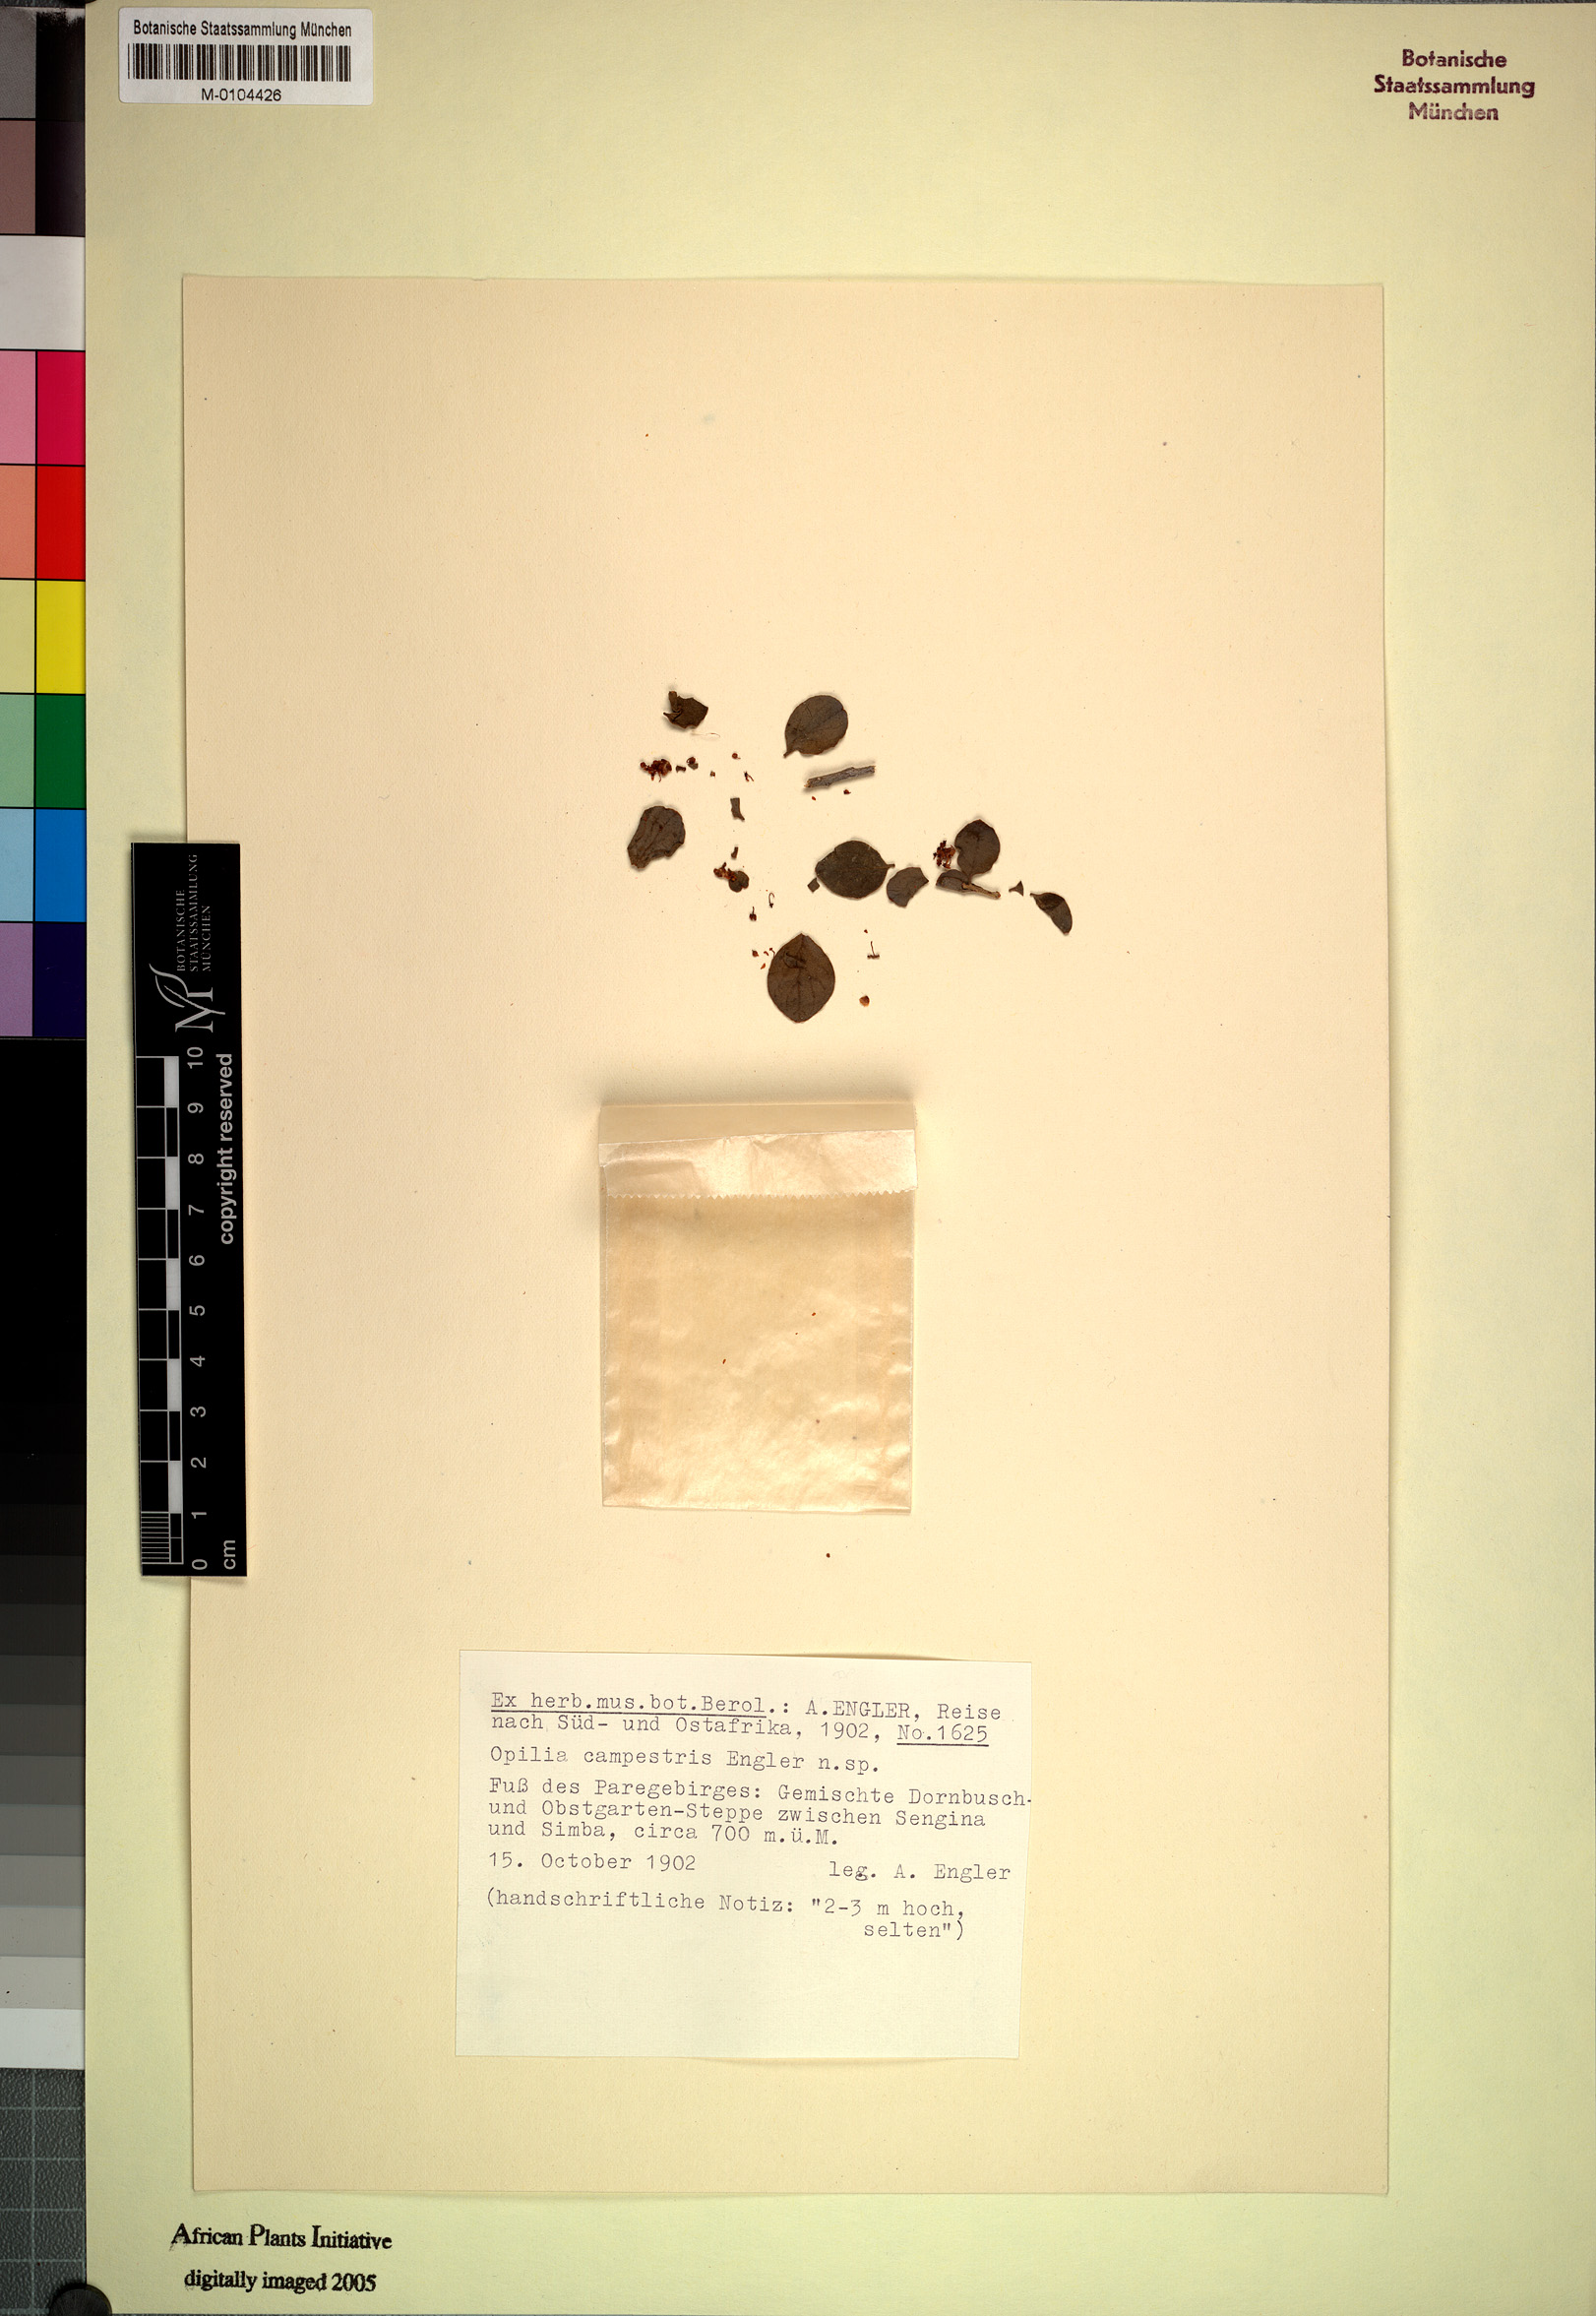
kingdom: Plantae
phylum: Tracheophyta
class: Magnoliopsida
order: Santalales
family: Opiliaceae
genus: Opilia
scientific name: Opilia campestris
